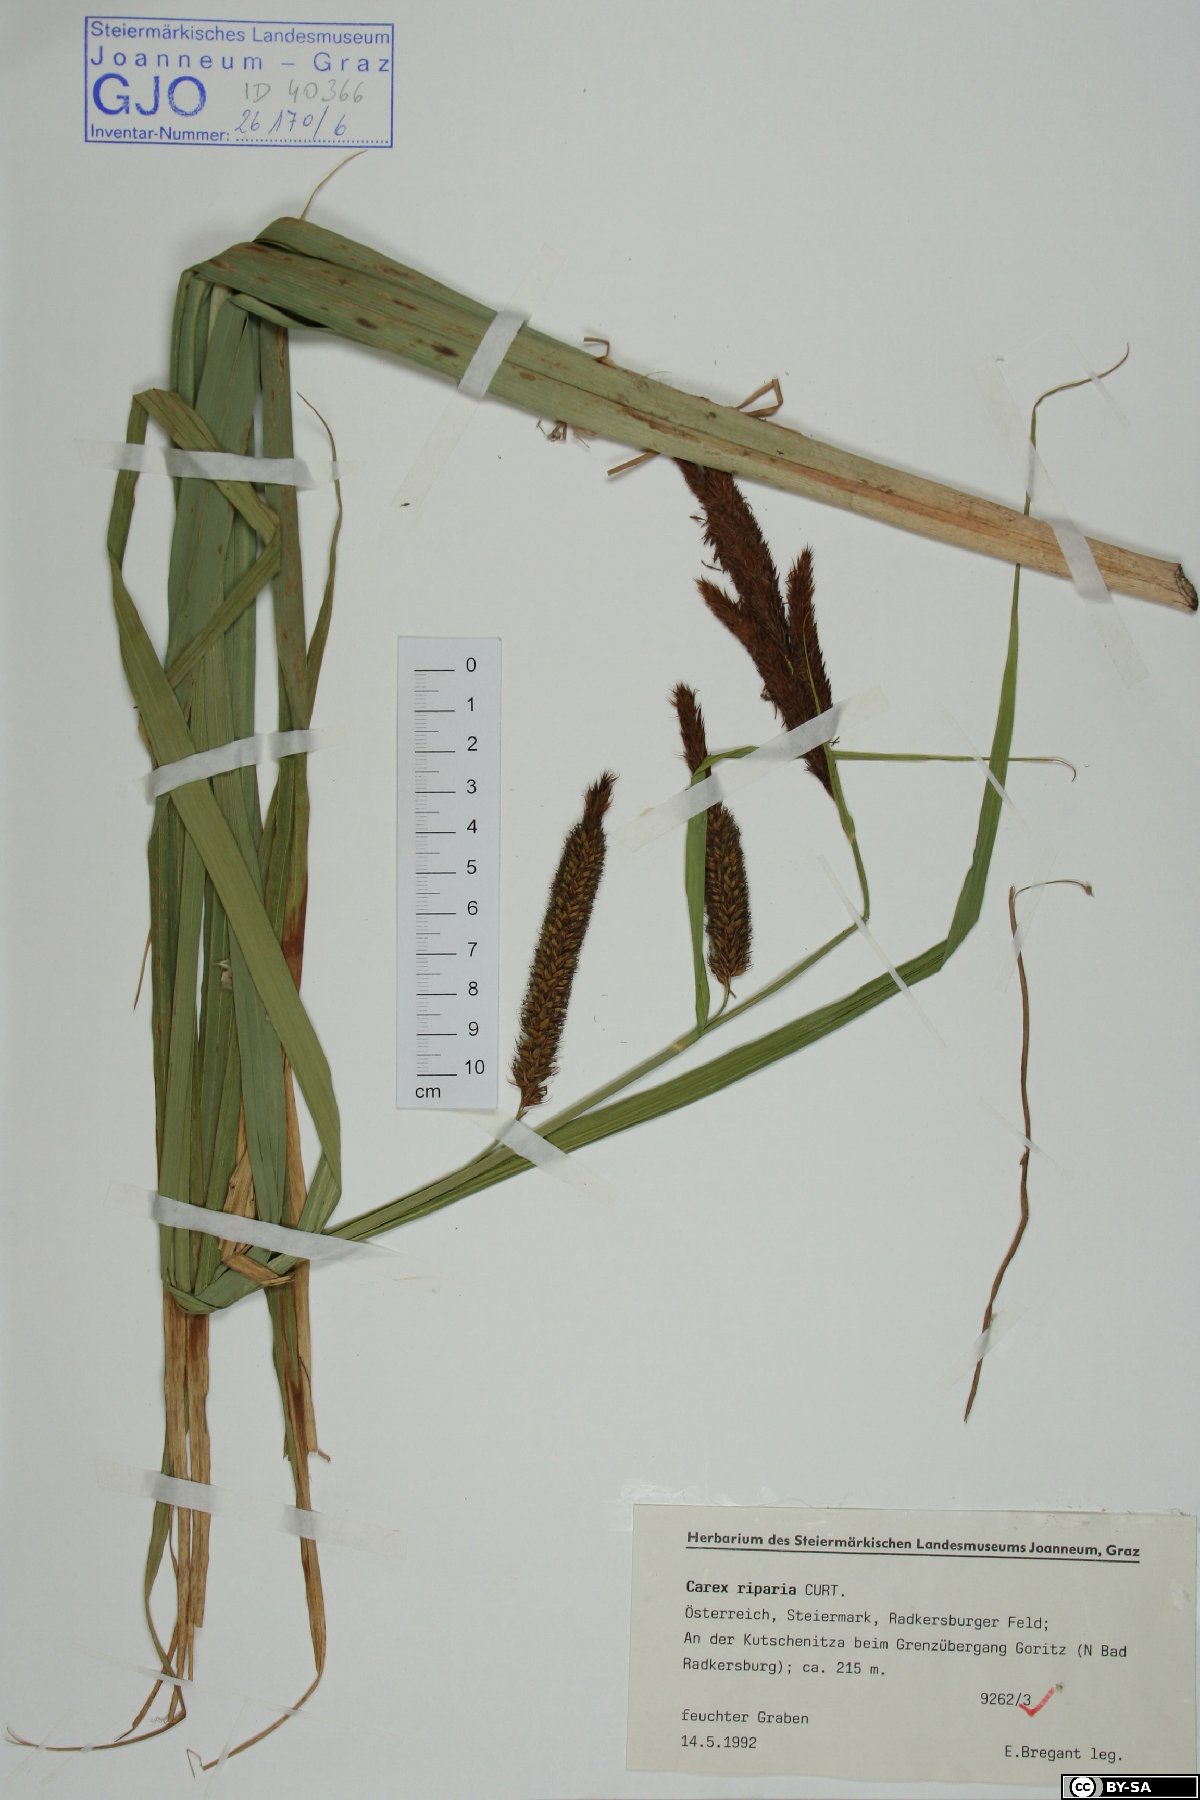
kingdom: Plantae
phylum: Tracheophyta
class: Liliopsida
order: Poales
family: Cyperaceae
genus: Carex
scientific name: Carex riparia
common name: Greater pond-sedge
